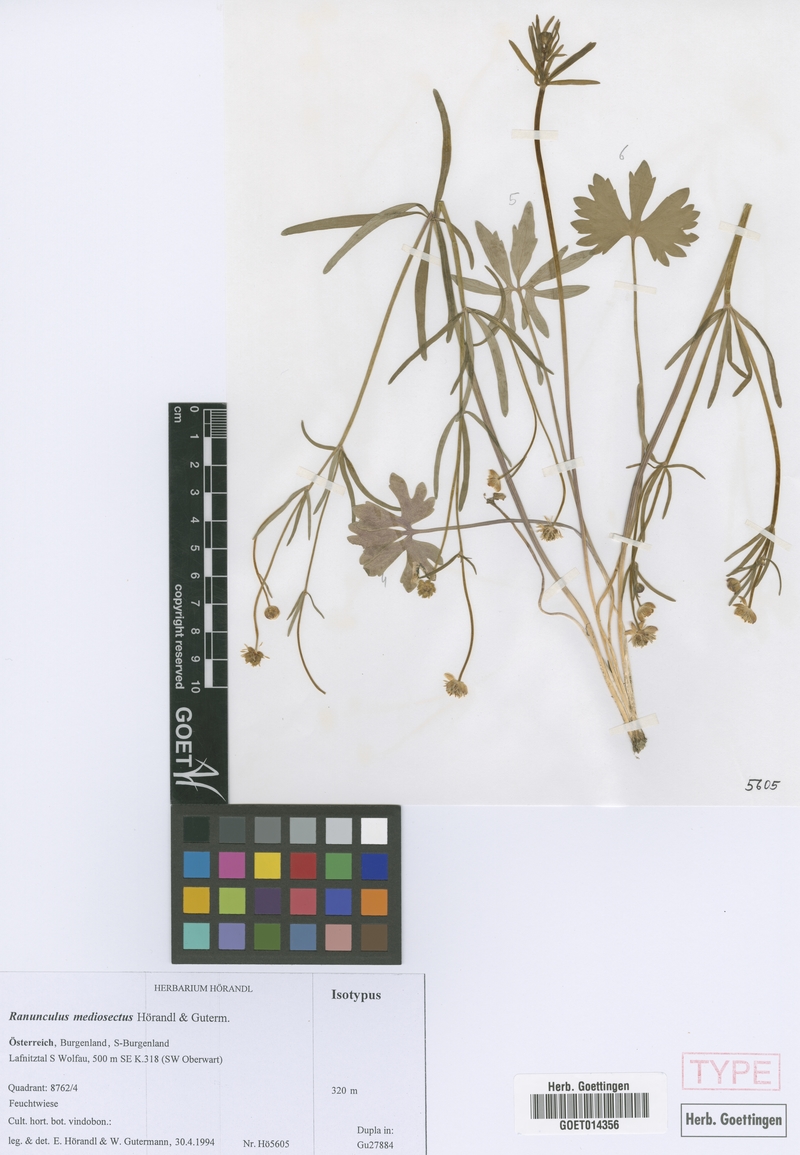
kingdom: Plantae
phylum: Tracheophyta
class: Magnoliopsida
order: Ranunculales
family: Ranunculaceae
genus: Ranunculus
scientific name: Ranunculus mediosectus
